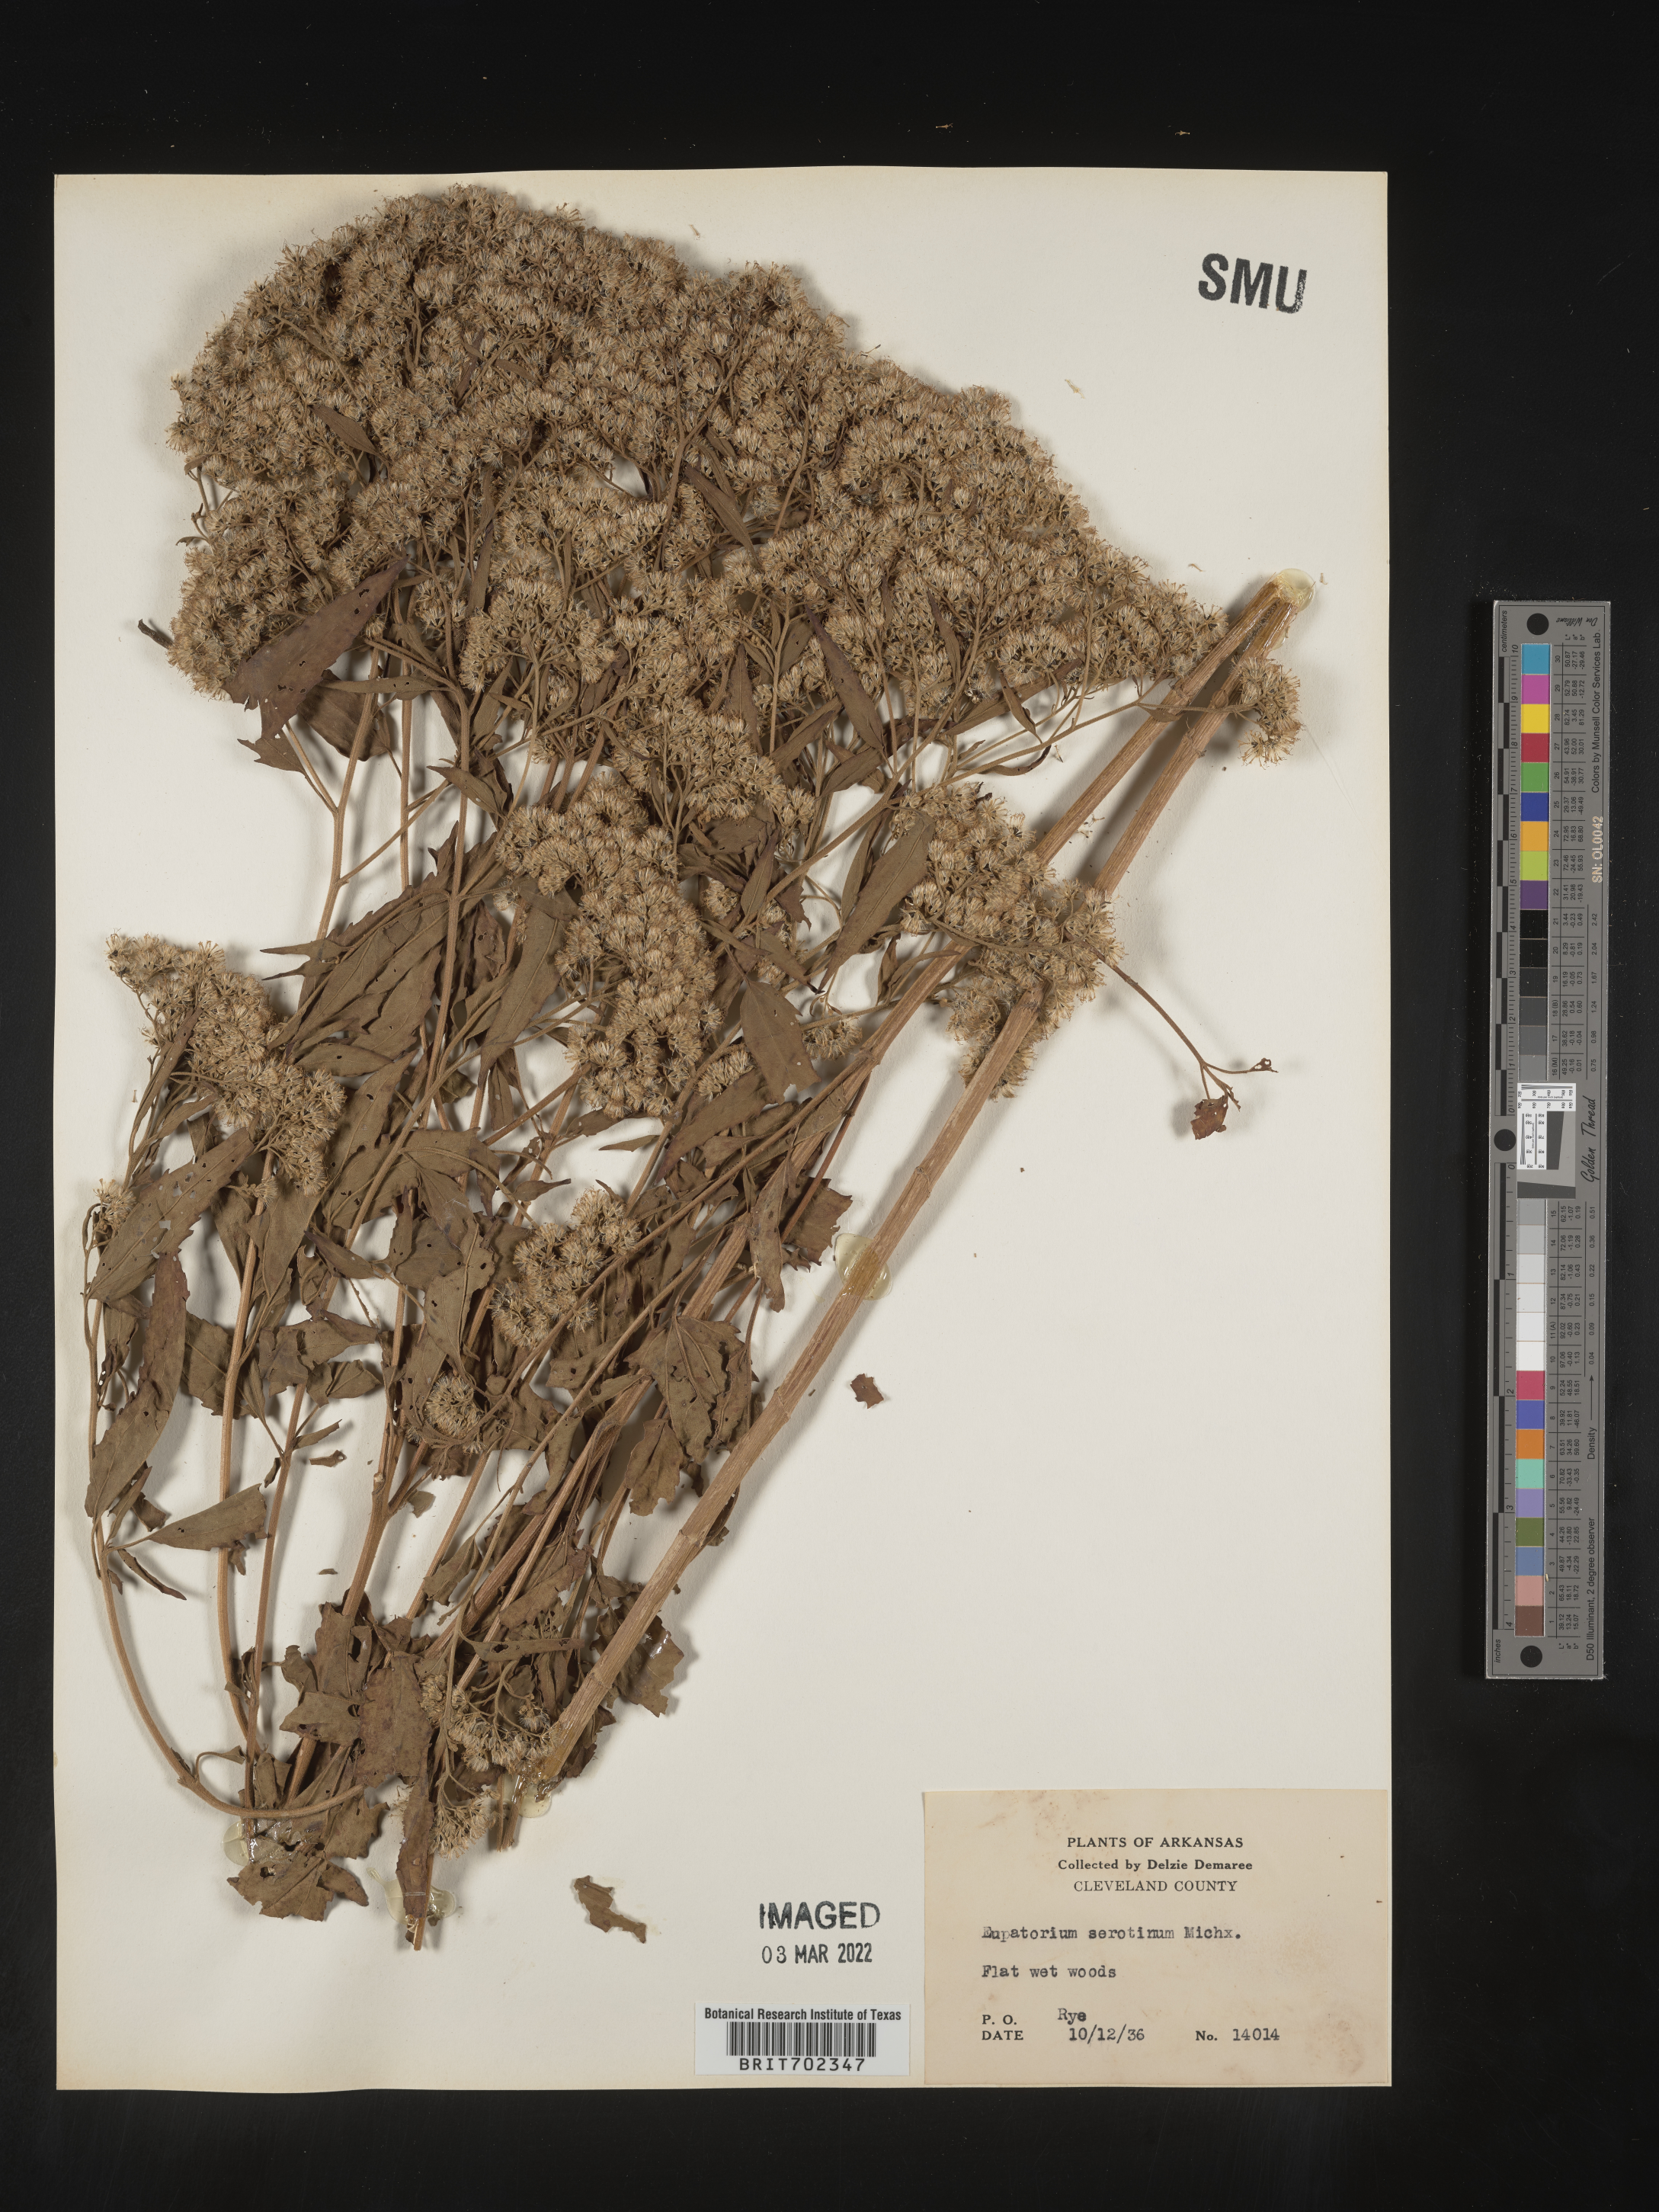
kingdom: Plantae
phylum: Tracheophyta
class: Magnoliopsida
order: Asterales
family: Asteraceae
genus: Eupatorium
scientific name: Eupatorium serotinum
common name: Late boneset
